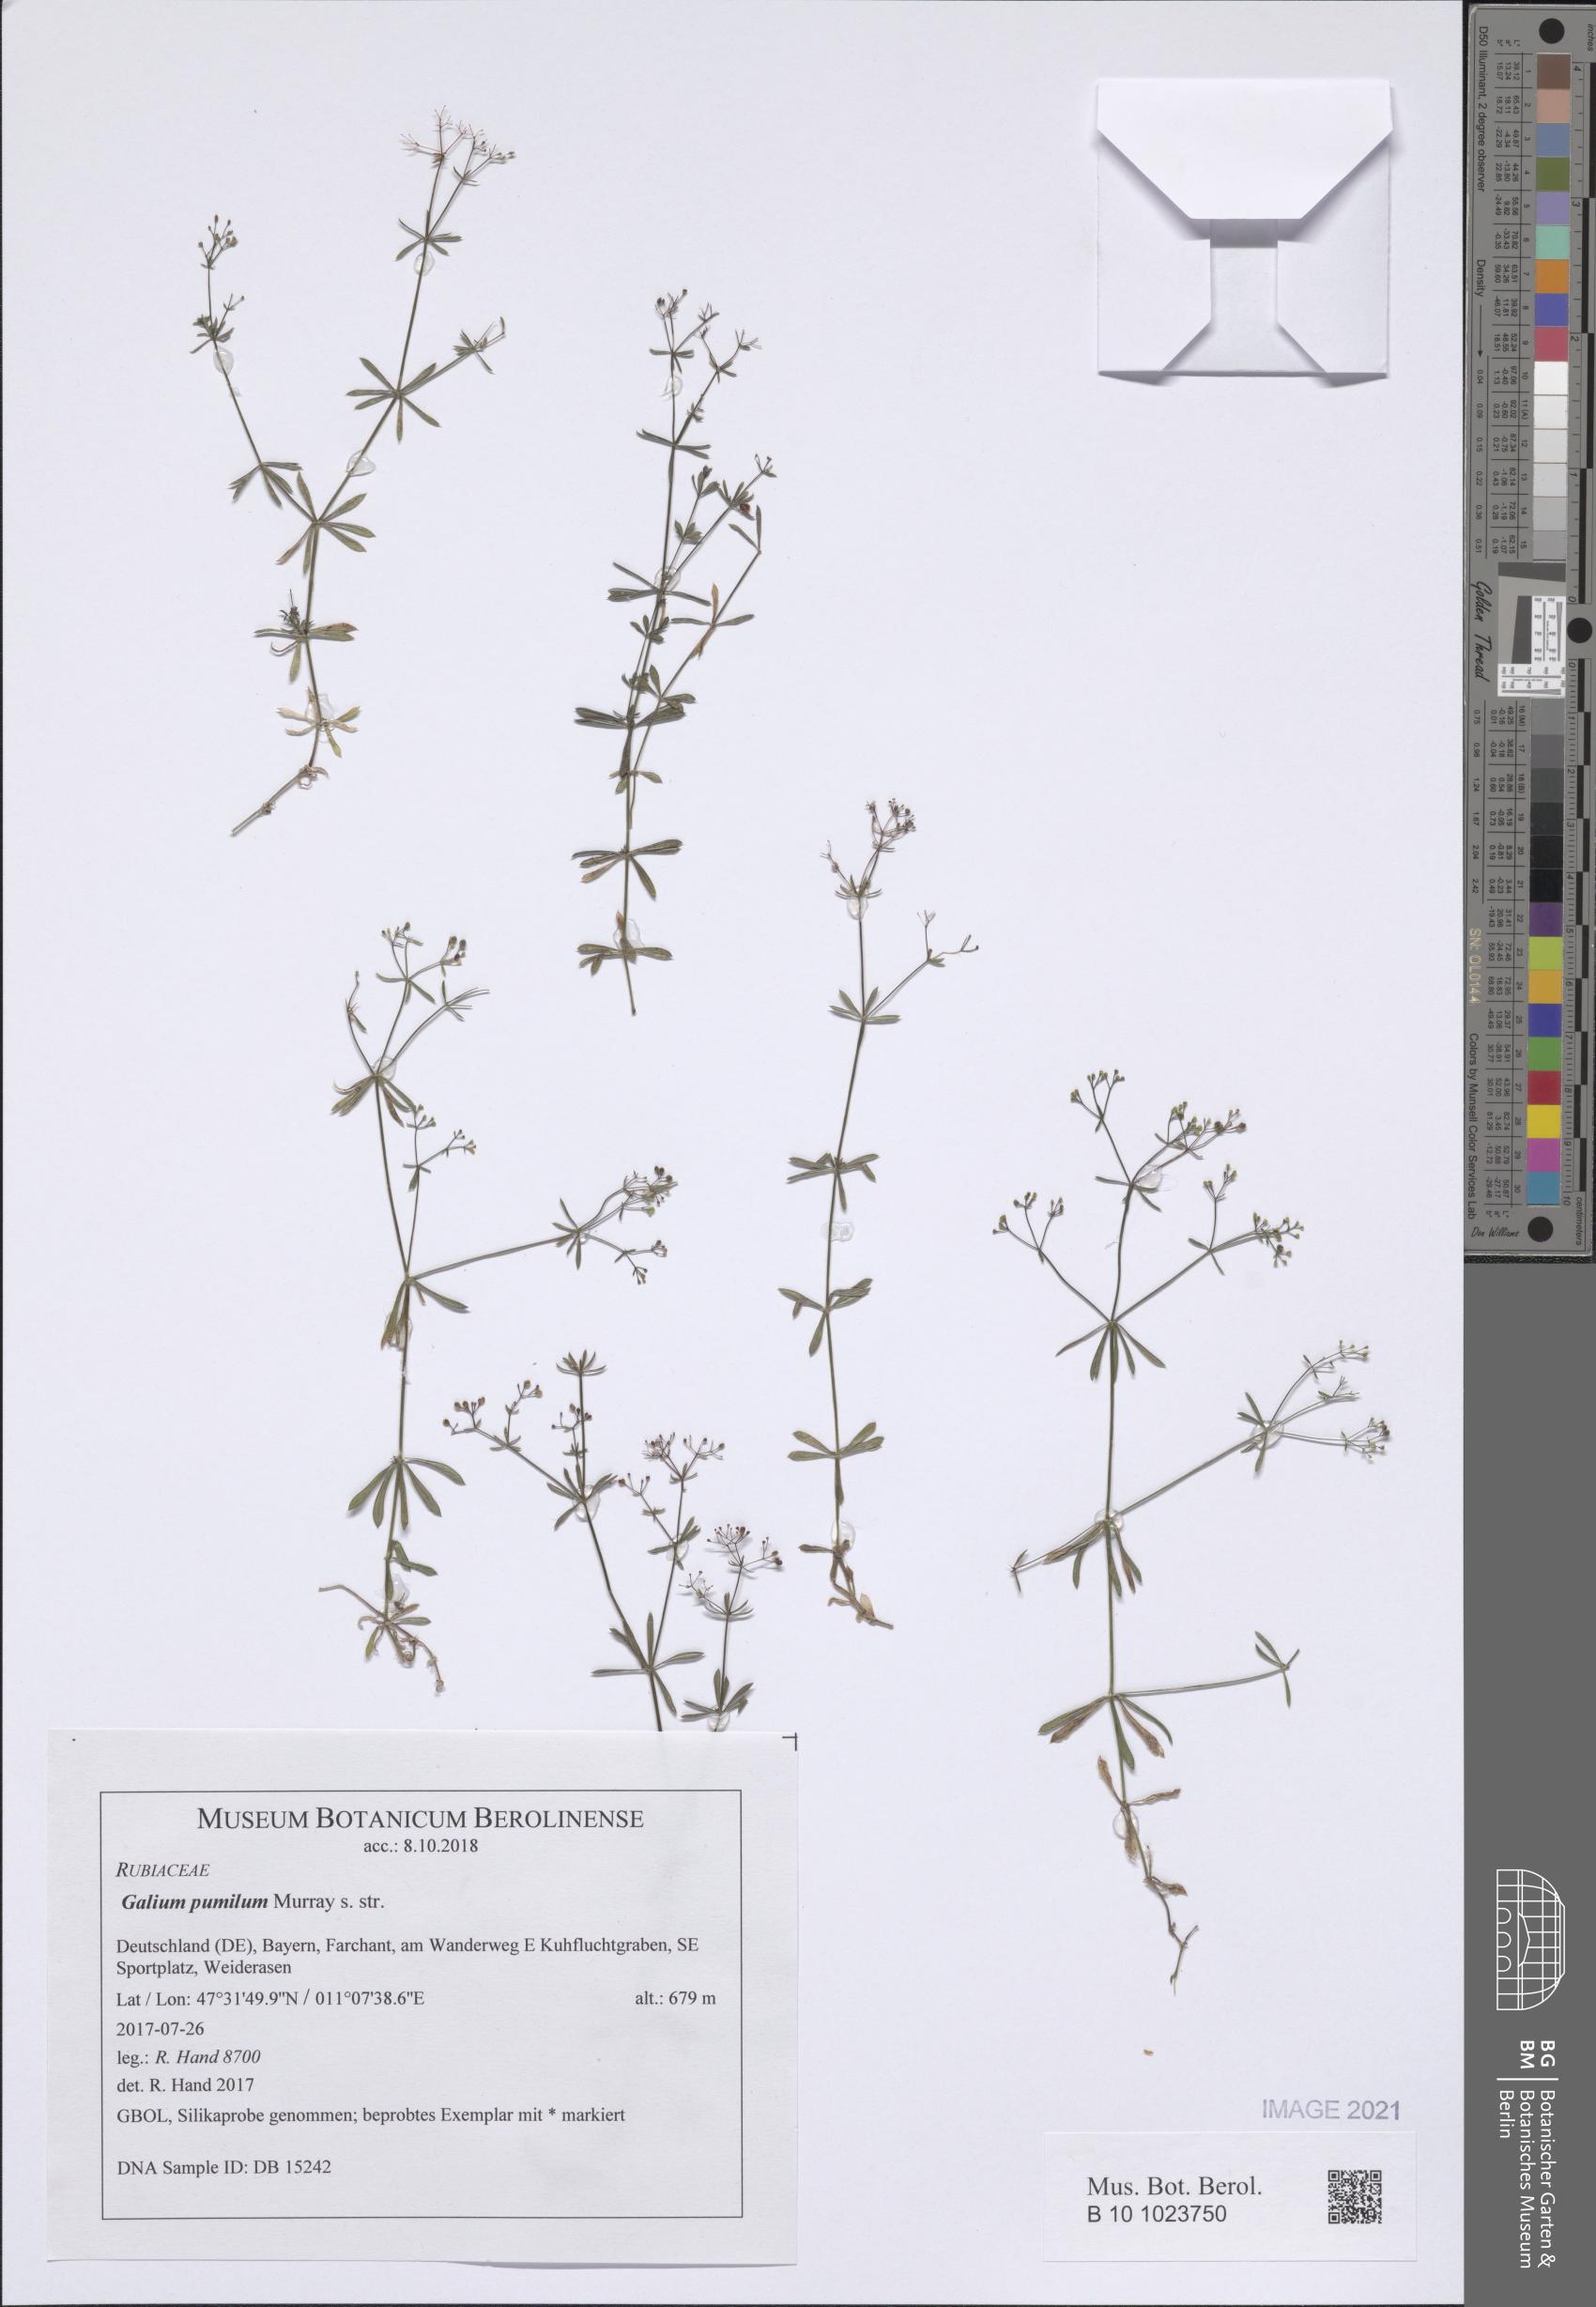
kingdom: Plantae
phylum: Tracheophyta
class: Magnoliopsida
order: Gentianales
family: Rubiaceae
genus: Galium
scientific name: Galium pumilum
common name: Slender bedstraw
